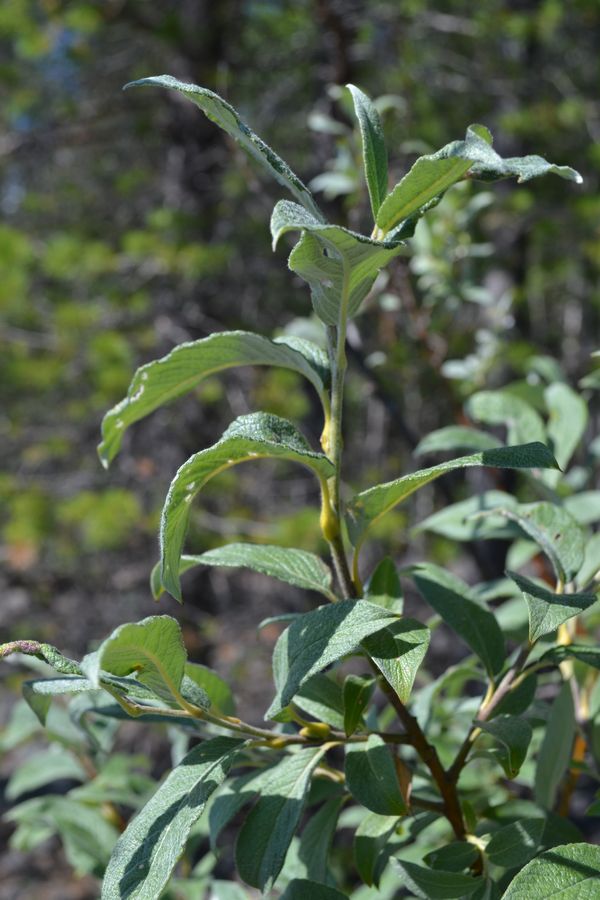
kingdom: Plantae
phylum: Tracheophyta
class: Magnoliopsida
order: Malpighiales
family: Salicaceae
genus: Salix
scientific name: Salix lapponum
